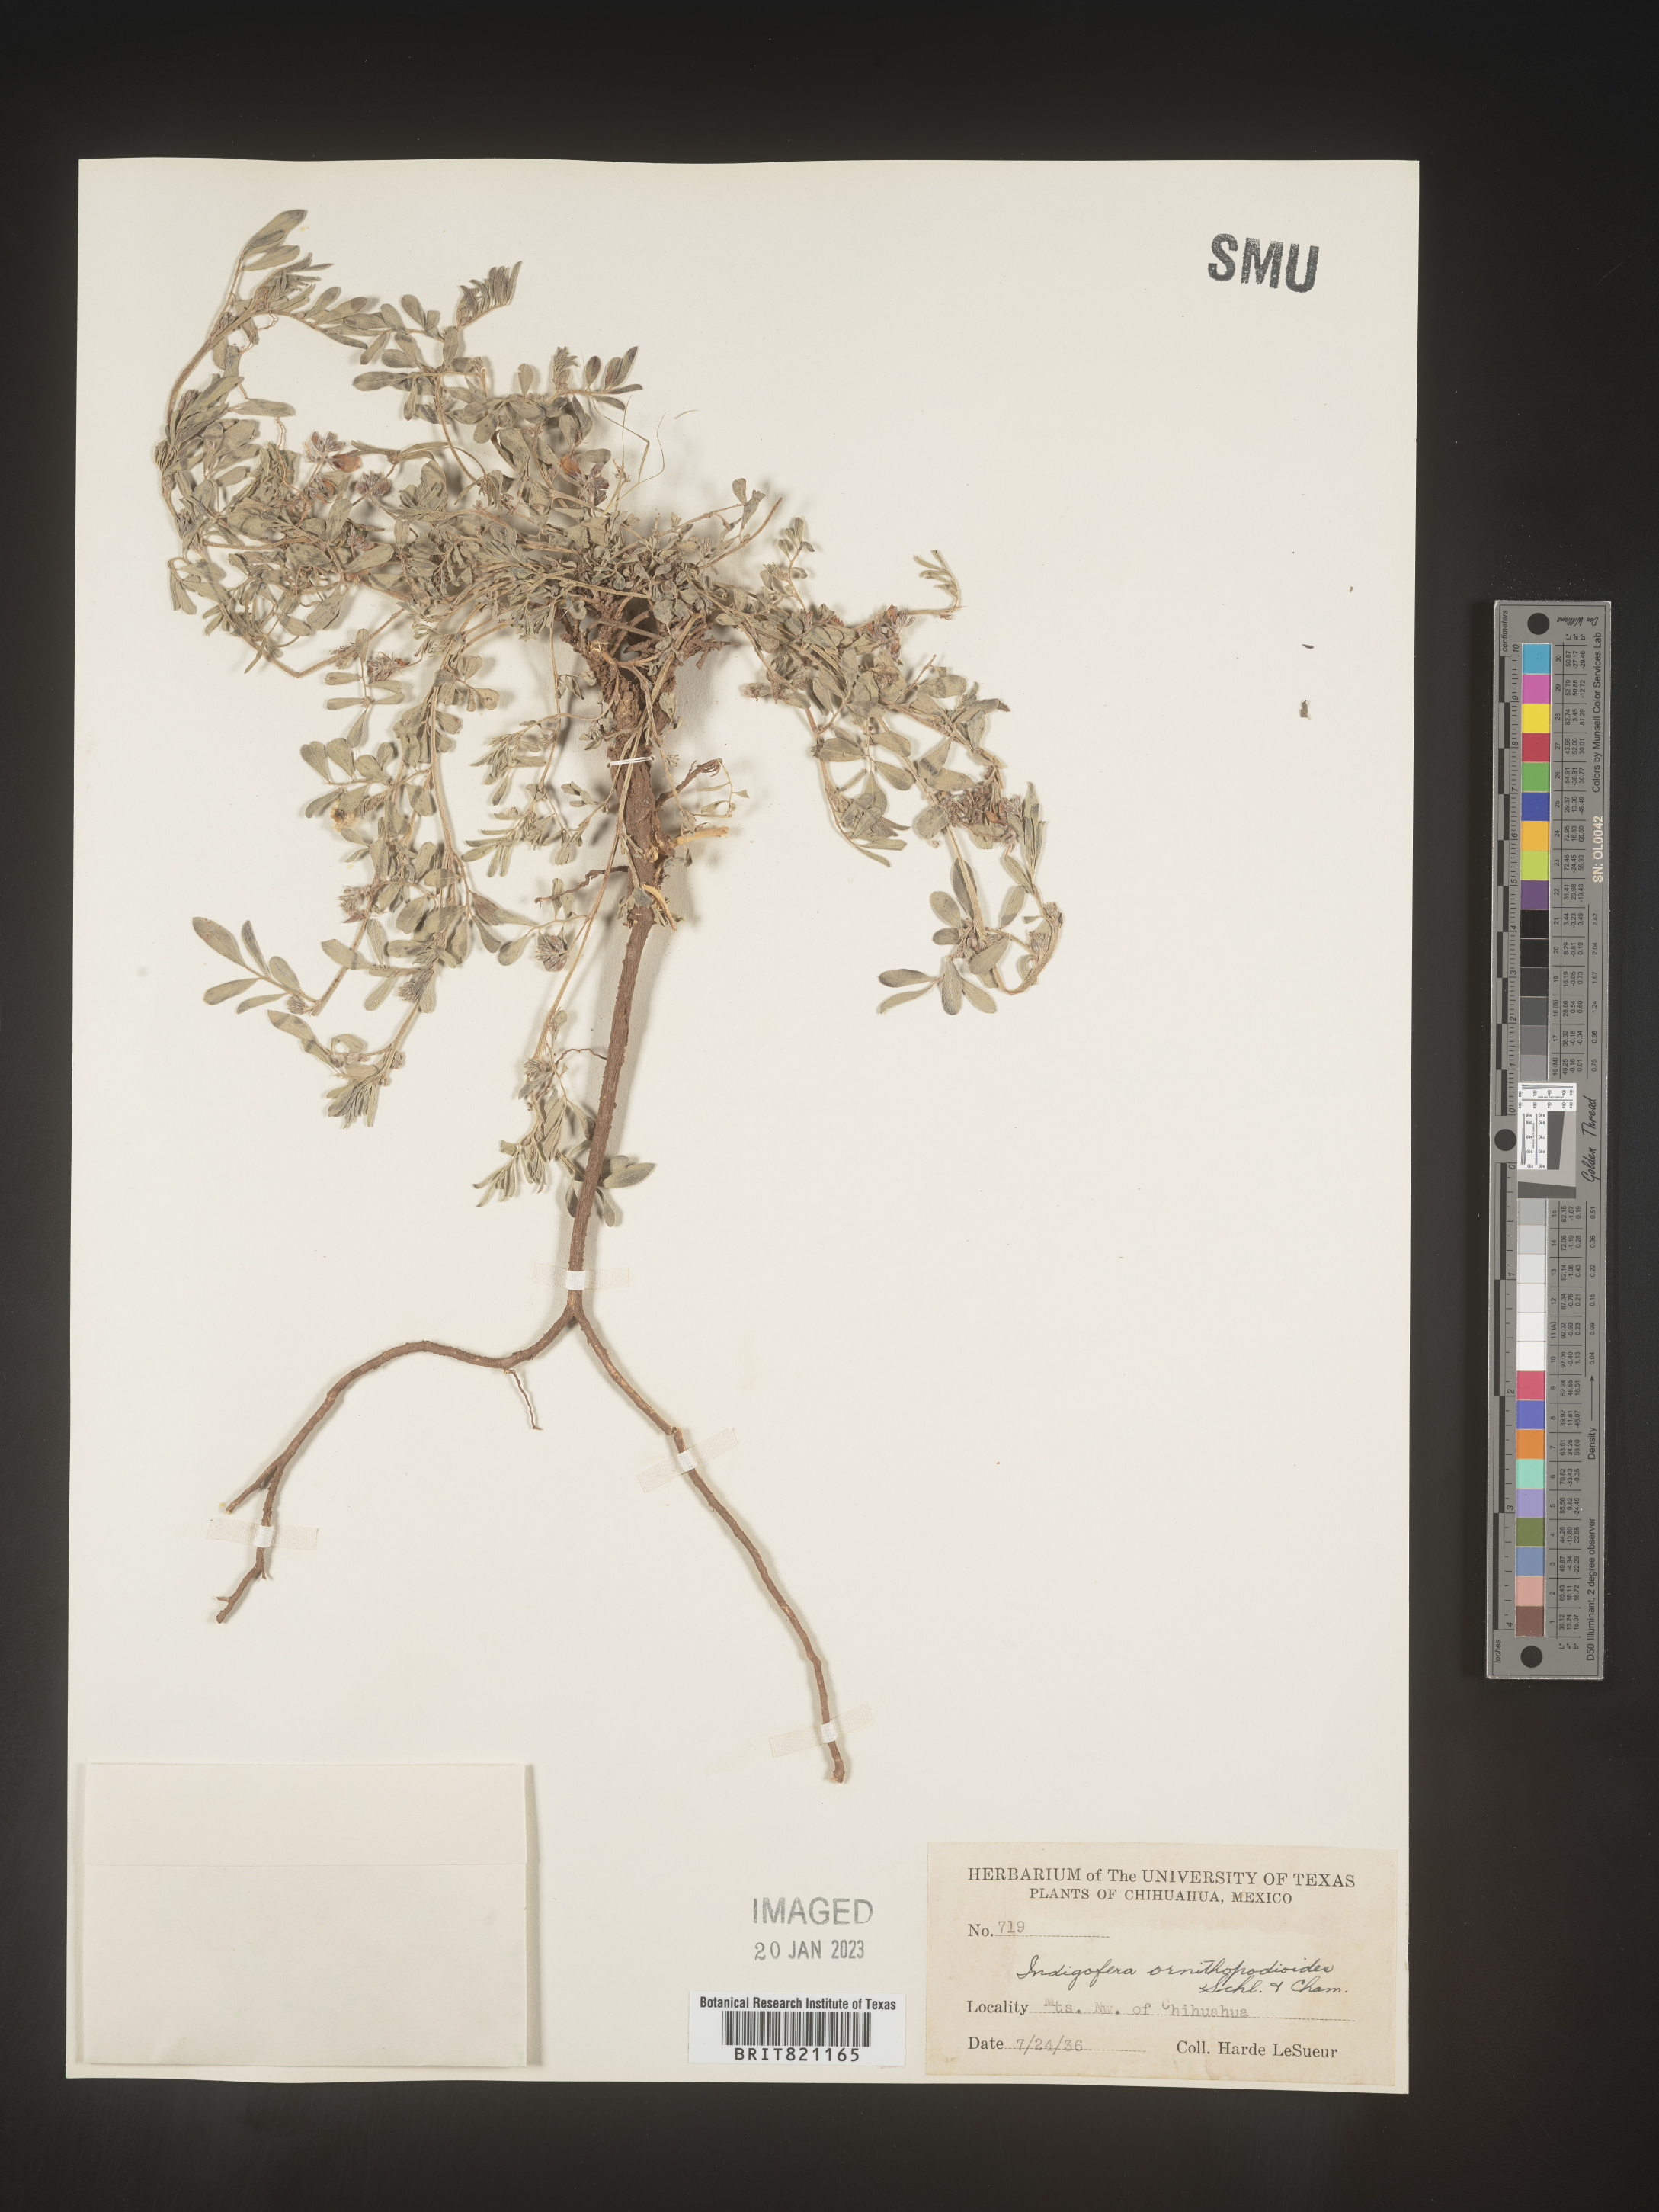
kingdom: Plantae
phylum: Tracheophyta
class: Magnoliopsida
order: Fabales
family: Fabaceae
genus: Indigofera
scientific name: Indigofera
